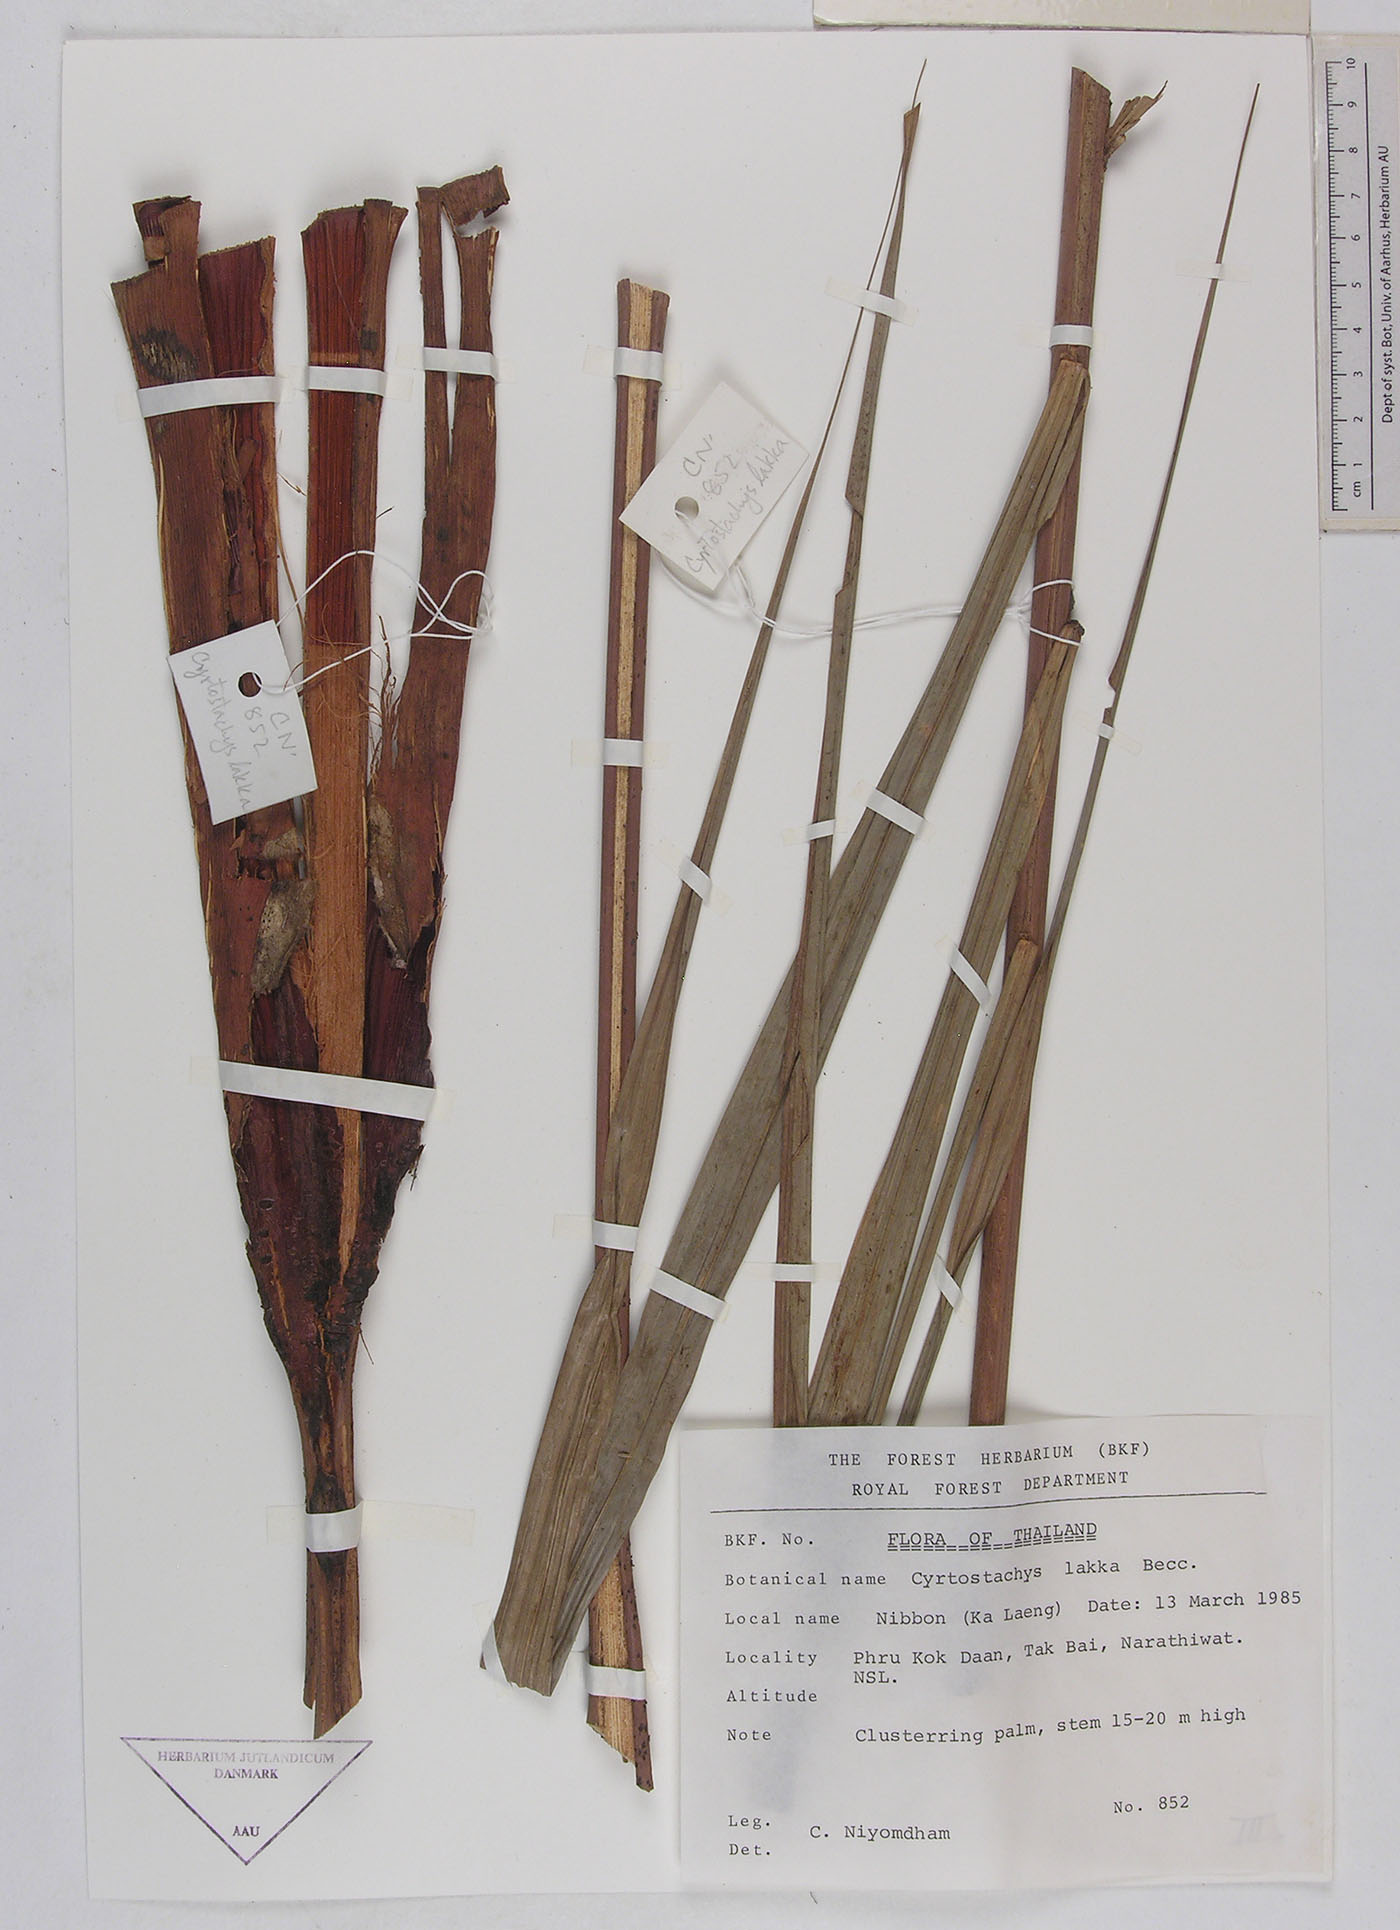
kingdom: Plantae
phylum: Tracheophyta
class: Liliopsida
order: Arecales
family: Arecaceae
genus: Cyrtostachys
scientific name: Cyrtostachys renda
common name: Lipstick palm
